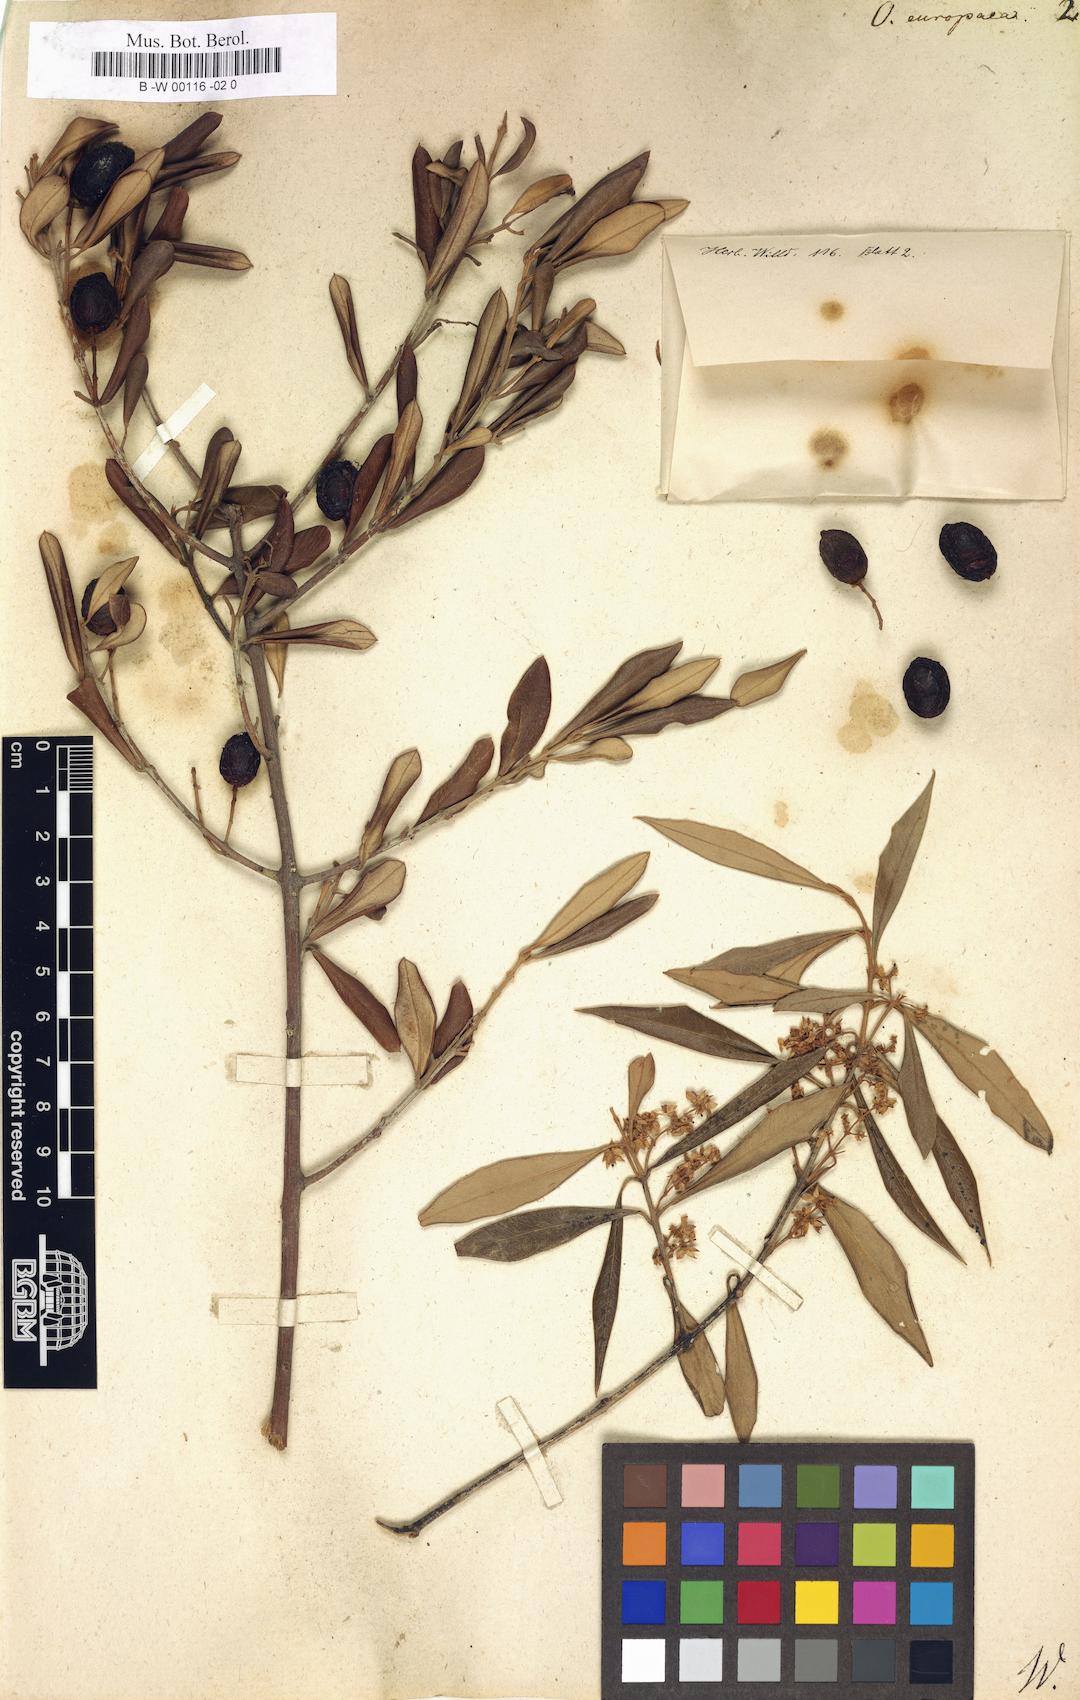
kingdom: Plantae
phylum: Tracheophyta
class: Magnoliopsida
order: Lamiales
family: Oleaceae
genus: Olea
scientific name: Olea europaea
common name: Olive
